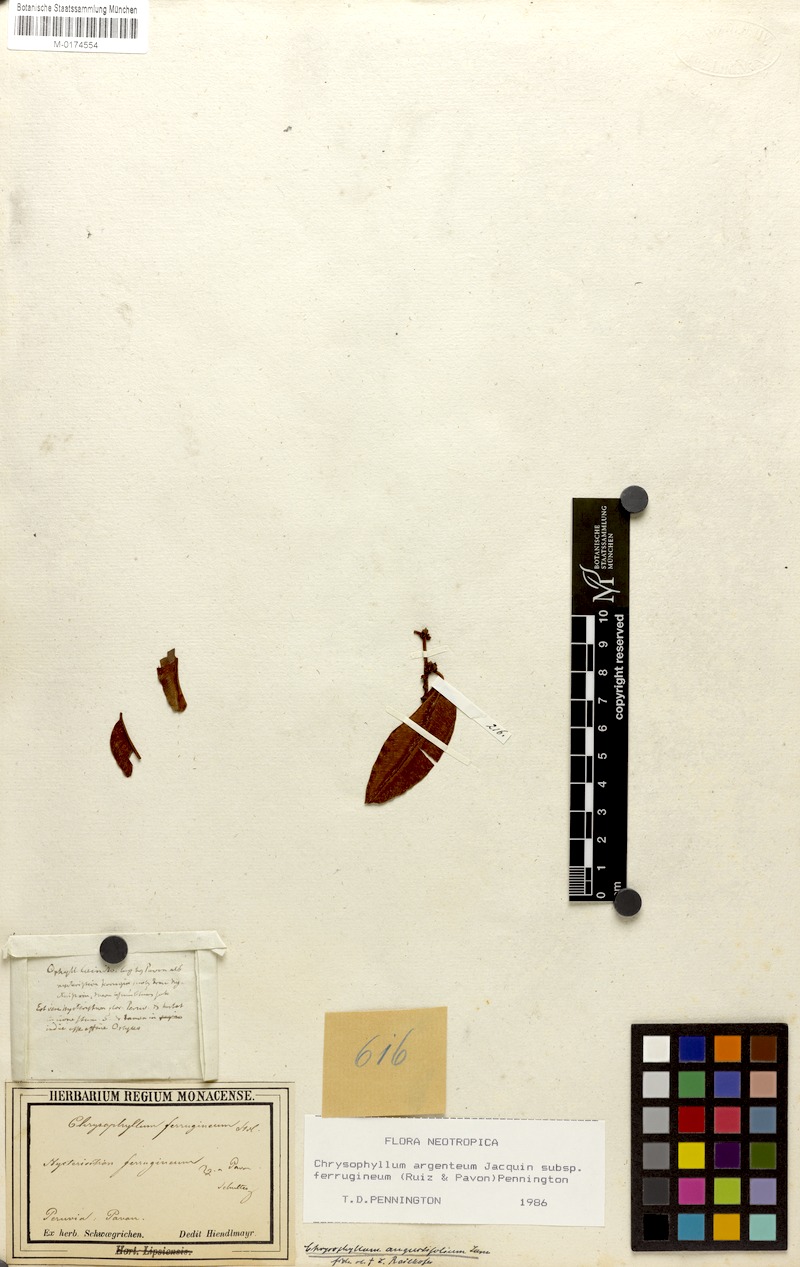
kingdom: Plantae
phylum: Tracheophyta
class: Magnoliopsida
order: Ericales
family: Sapotaceae
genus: Chrysophyllum
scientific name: Chrysophyllum argenteum
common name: Smooth star apple
